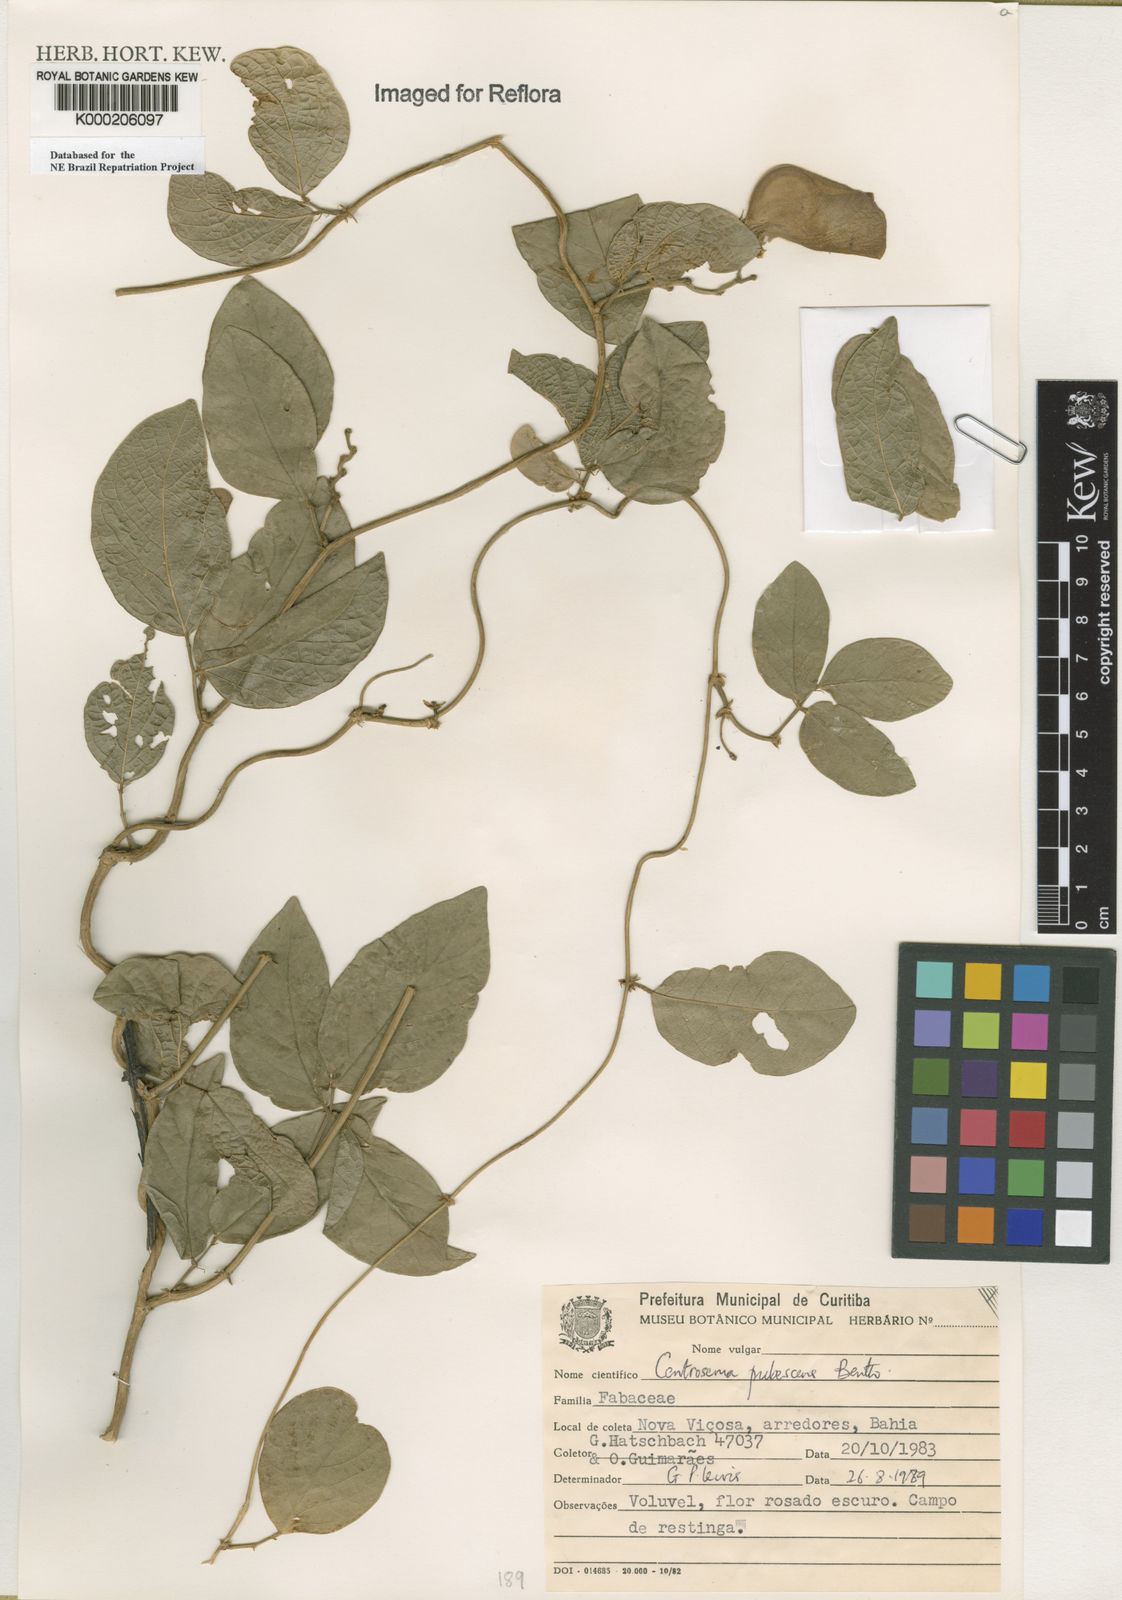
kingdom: Plantae
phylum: Tracheophyta
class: Magnoliopsida
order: Fabales
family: Fabaceae
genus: Centrosema
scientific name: Centrosema pubescens
